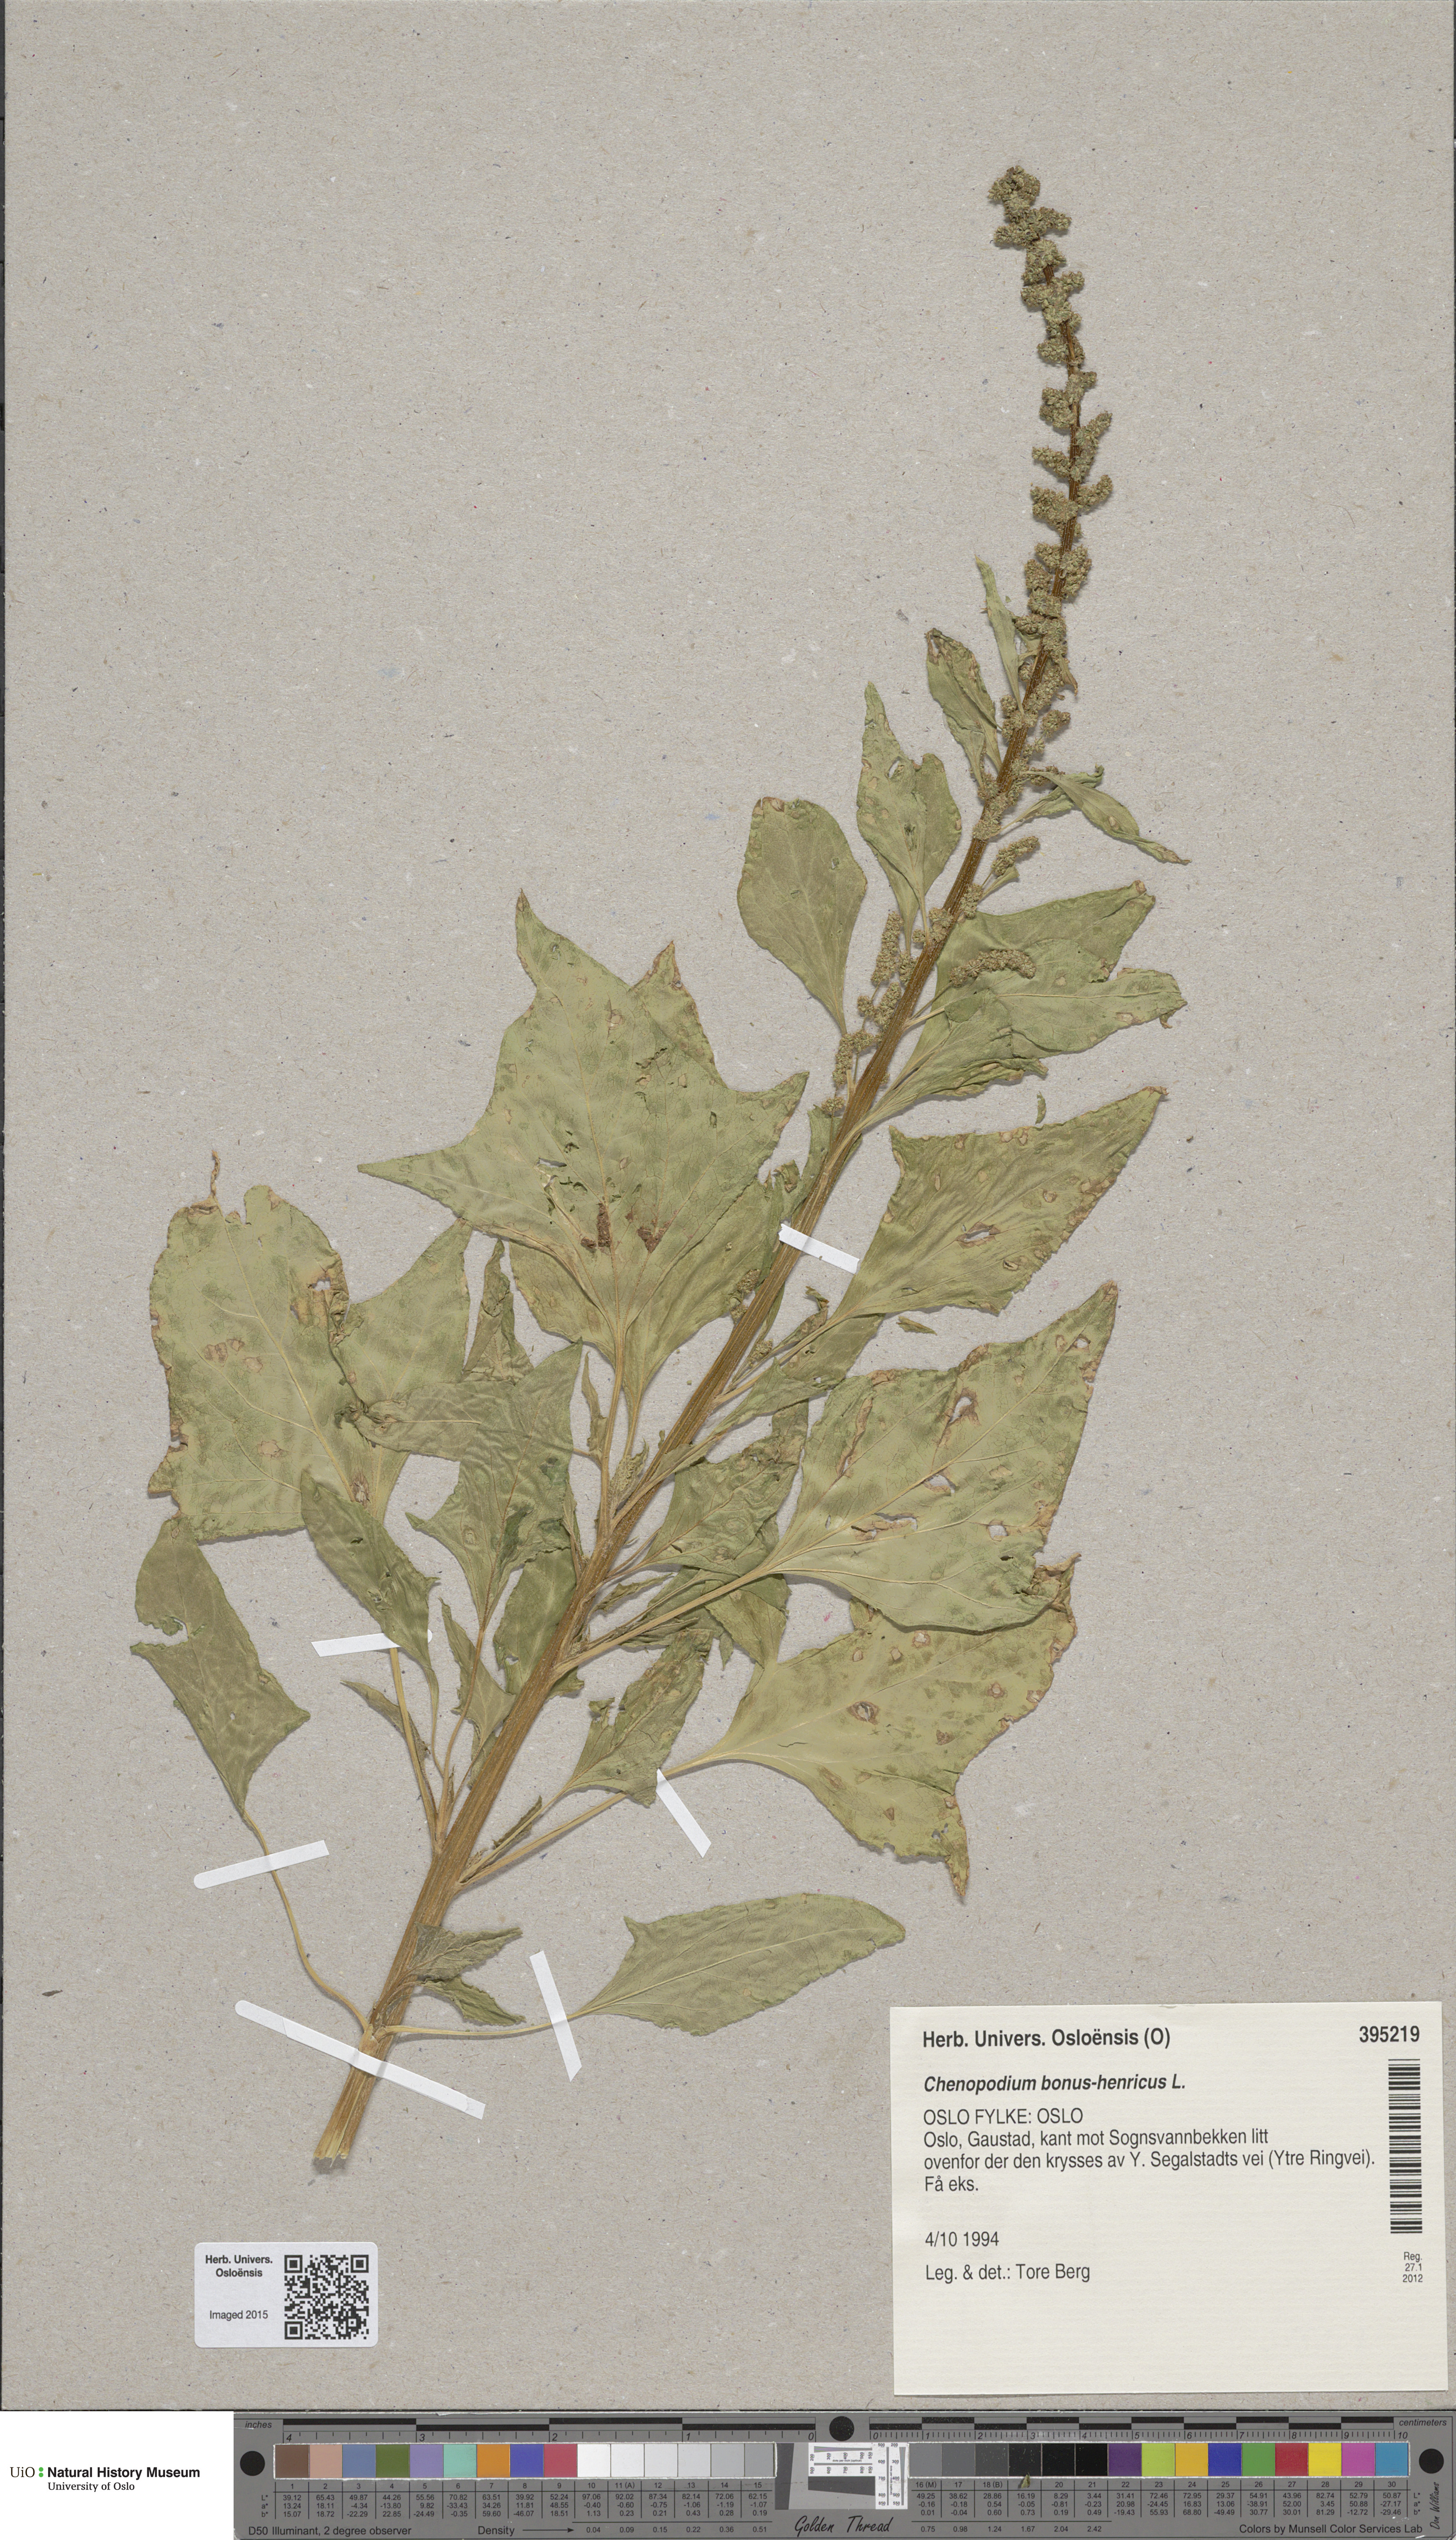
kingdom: Plantae
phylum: Tracheophyta
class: Magnoliopsida
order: Caryophyllales
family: Amaranthaceae
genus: Blitum
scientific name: Blitum bonus-henricus
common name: Good king henry
